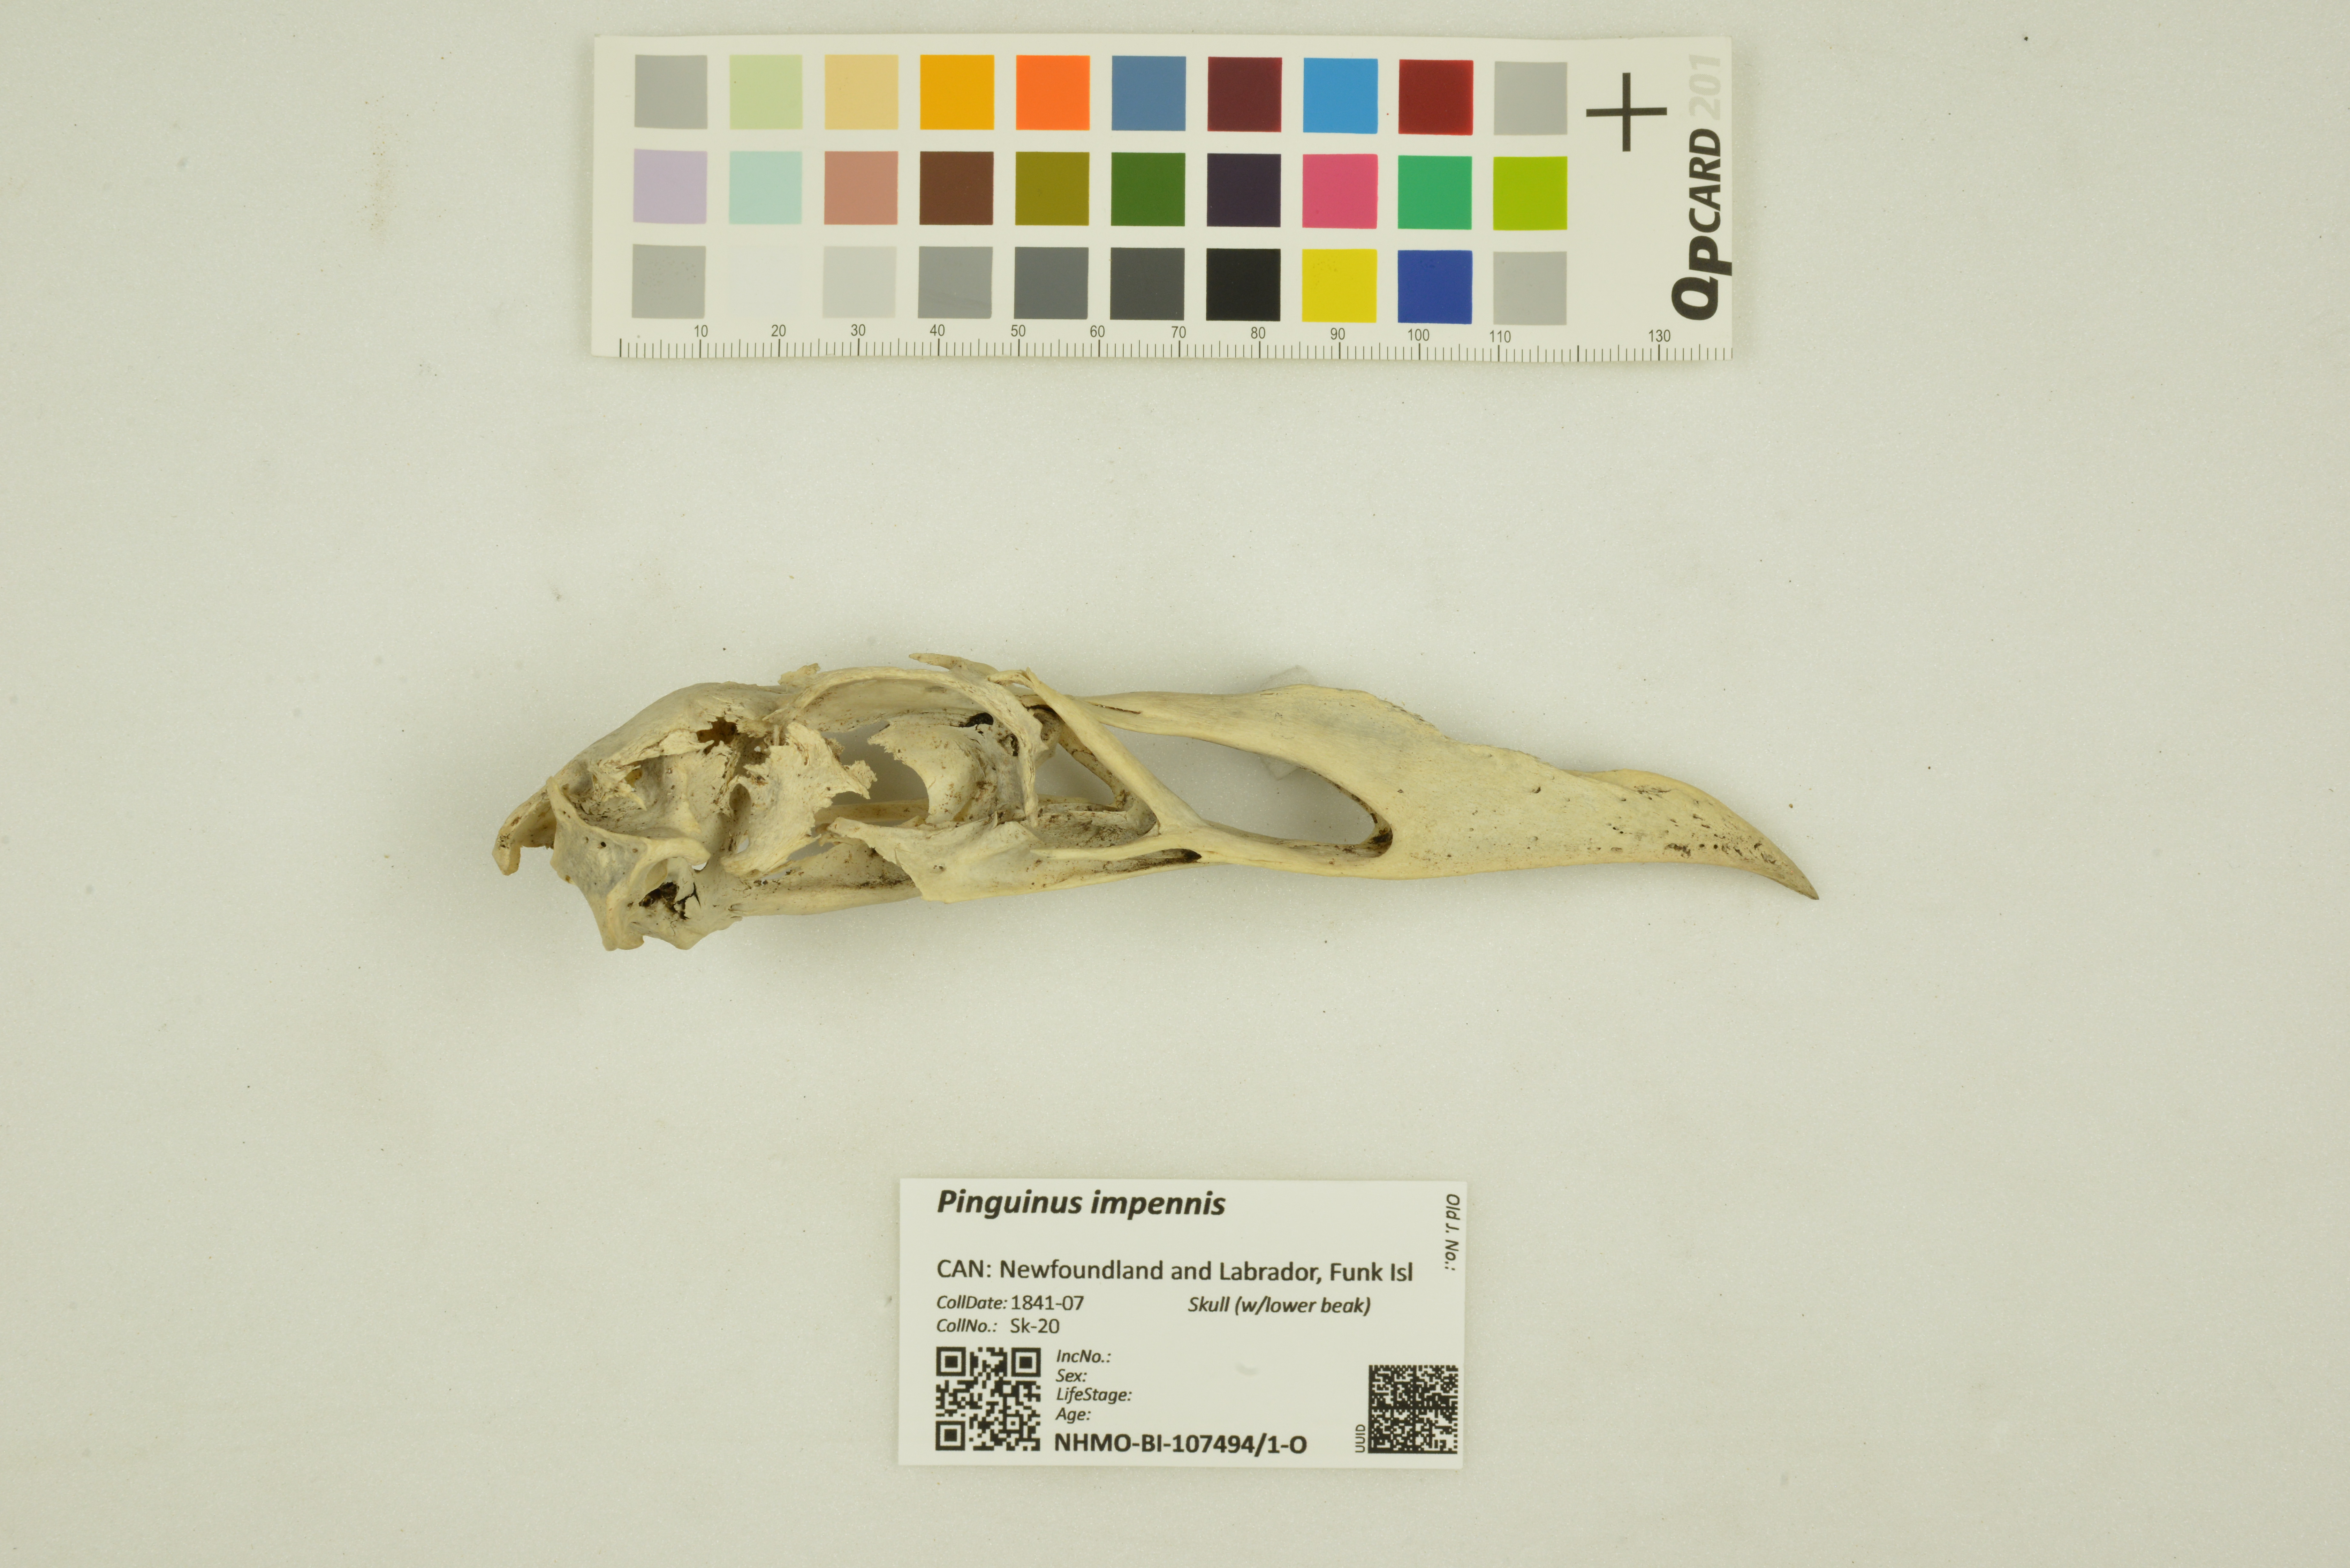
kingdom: Animalia
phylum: Chordata
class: Aves
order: Charadriiformes
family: Alcidae
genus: Pinguinus
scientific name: Pinguinus impennis
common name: Great auk
